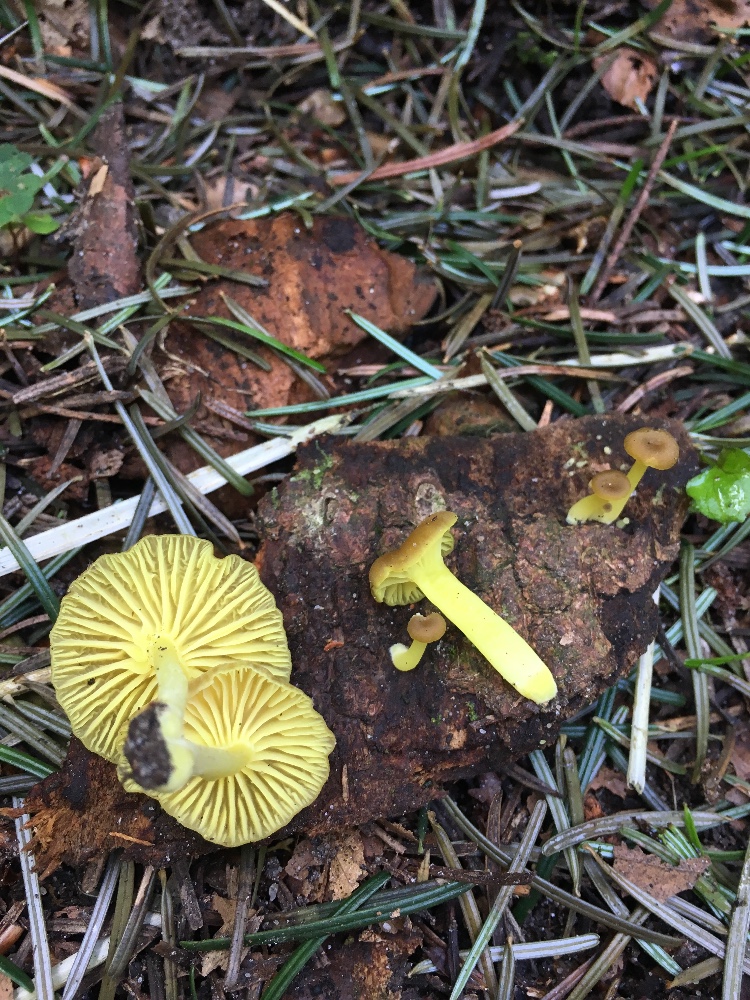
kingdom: Fungi
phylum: Basidiomycota
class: Agaricomycetes
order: Agaricales
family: Hygrophoraceae
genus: Chrysomphalina
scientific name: Chrysomphalina grossula
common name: stød-gyldenblad
